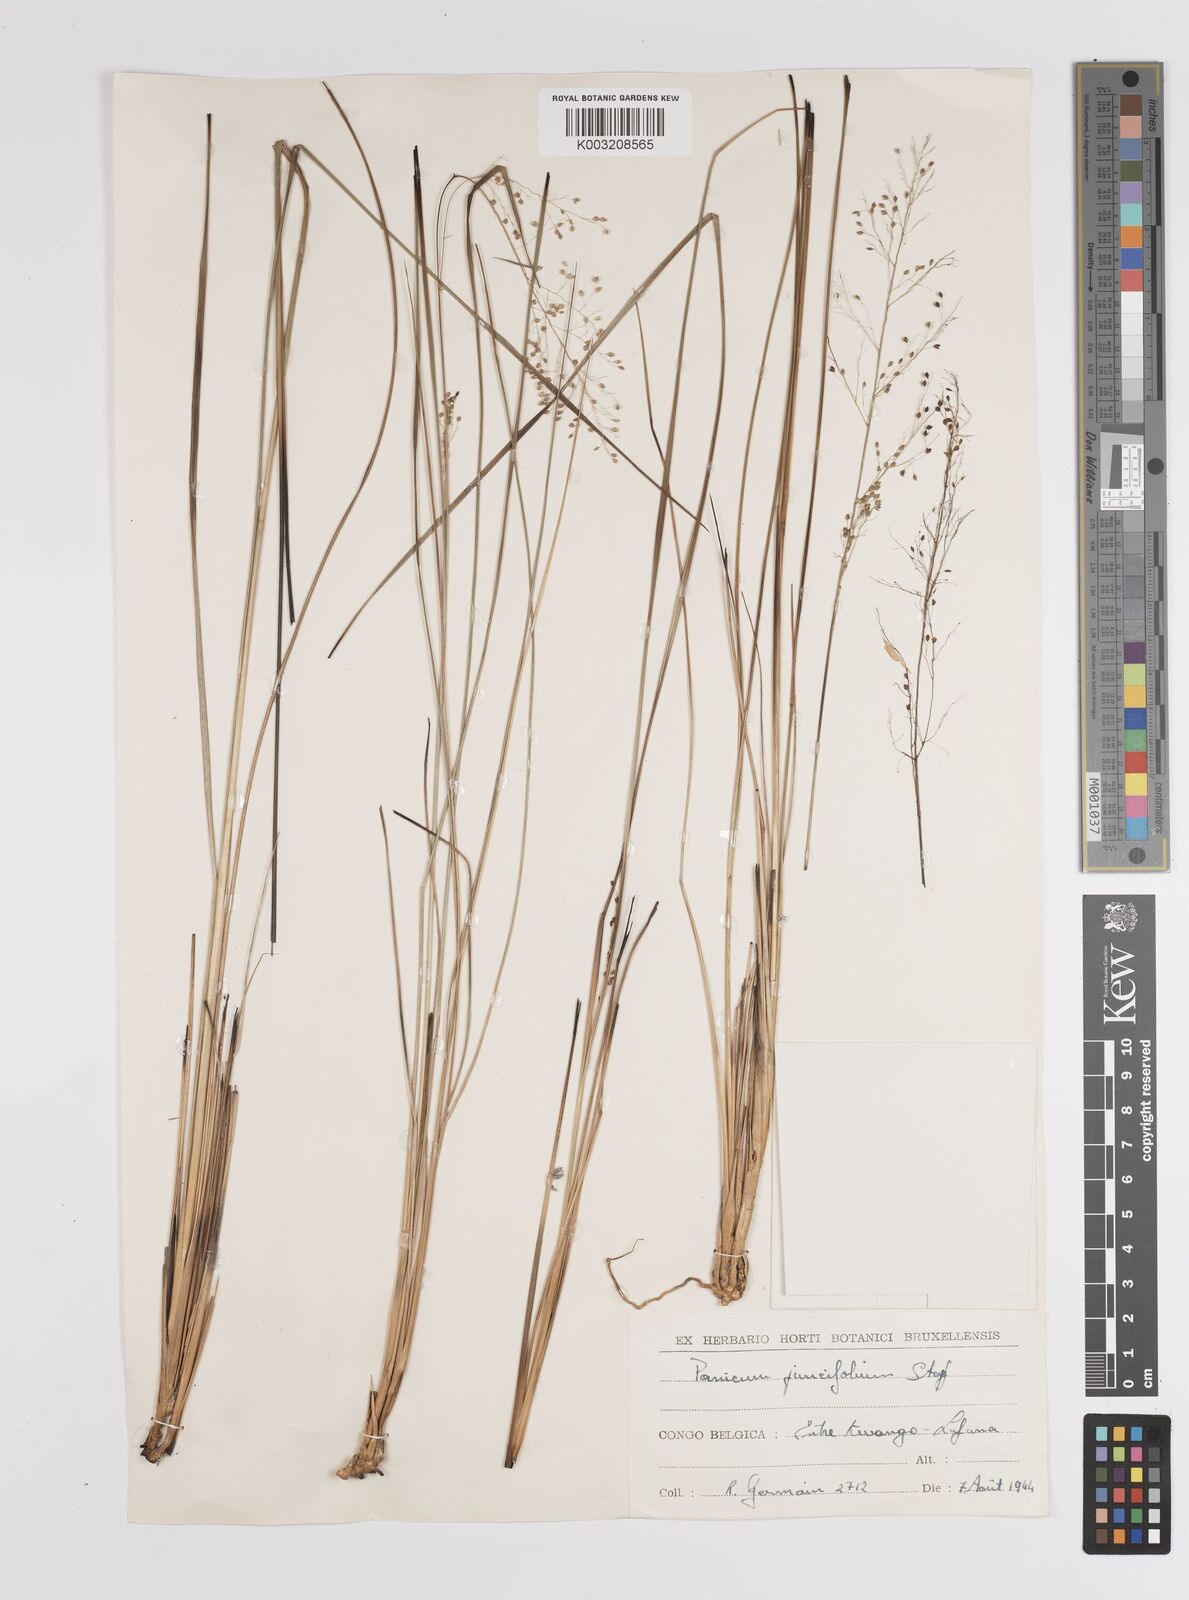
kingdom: Plantae
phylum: Tracheophyta
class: Liliopsida
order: Poales
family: Poaceae
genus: Trichanthecium
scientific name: Trichanthecium natalense
